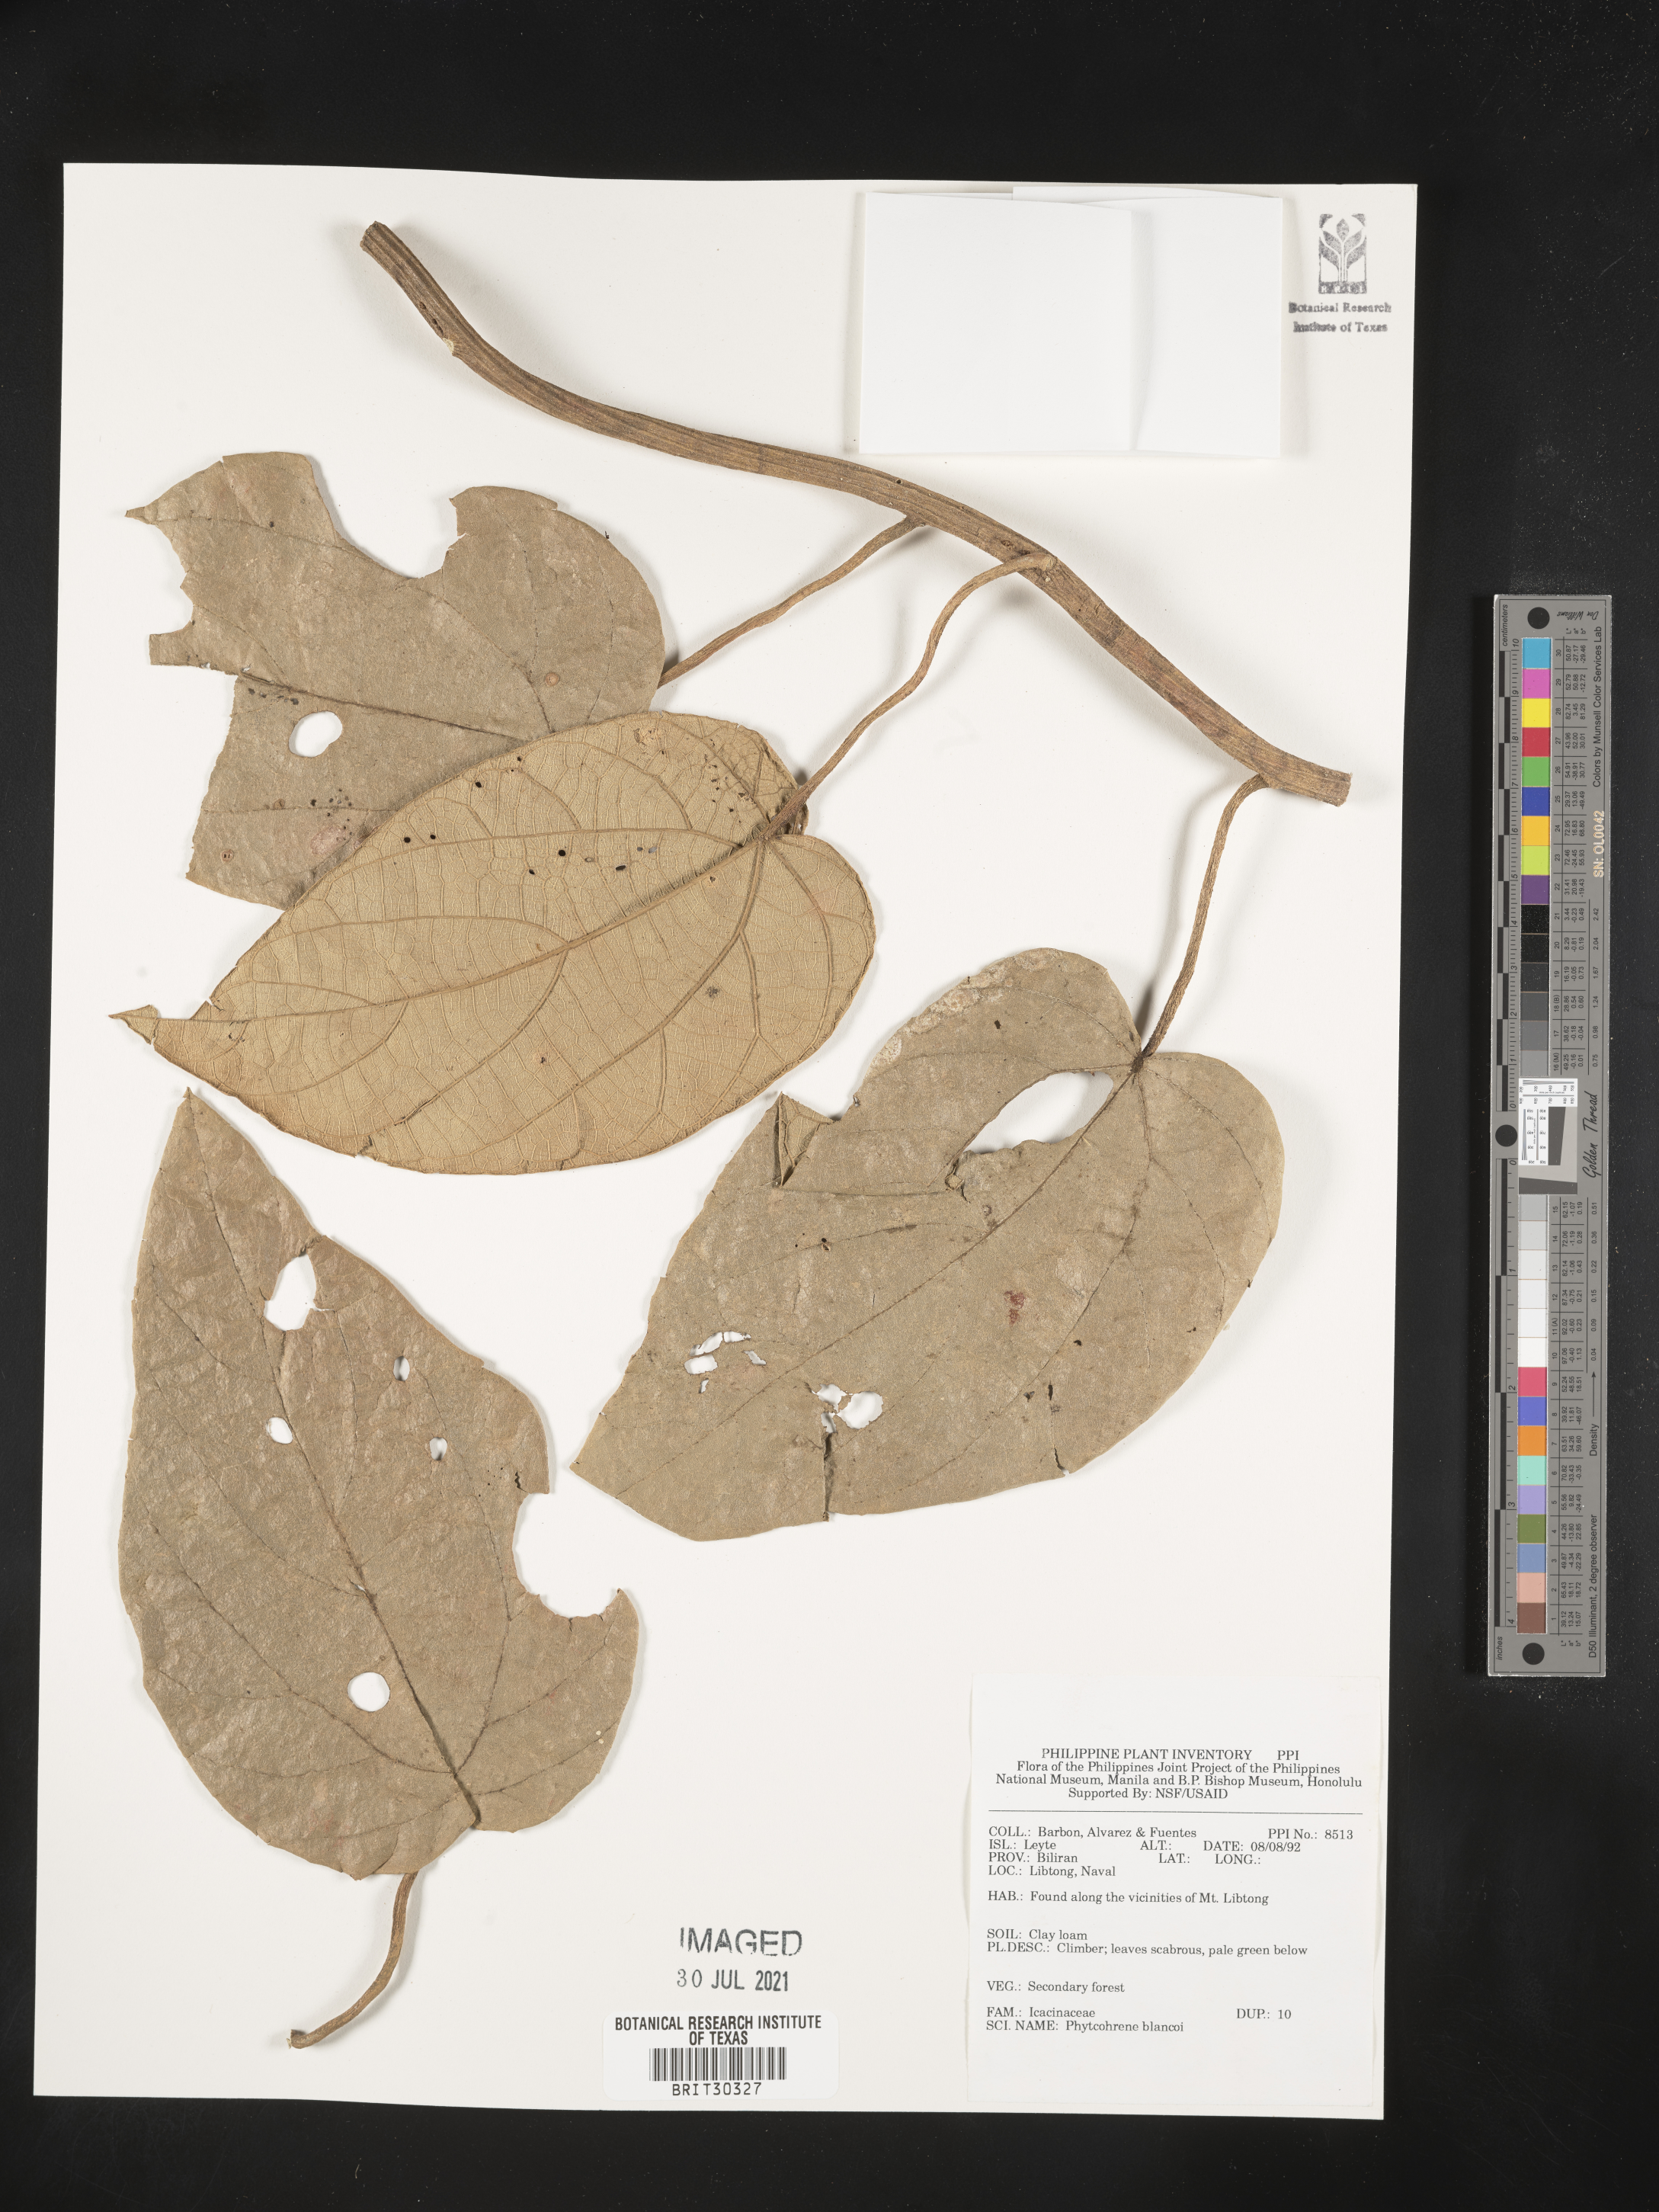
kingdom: Plantae
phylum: Tracheophyta
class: Magnoliopsida
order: Icacinales
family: Icacinaceae
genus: Phytocrene
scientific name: Phytocrene macrophylla
